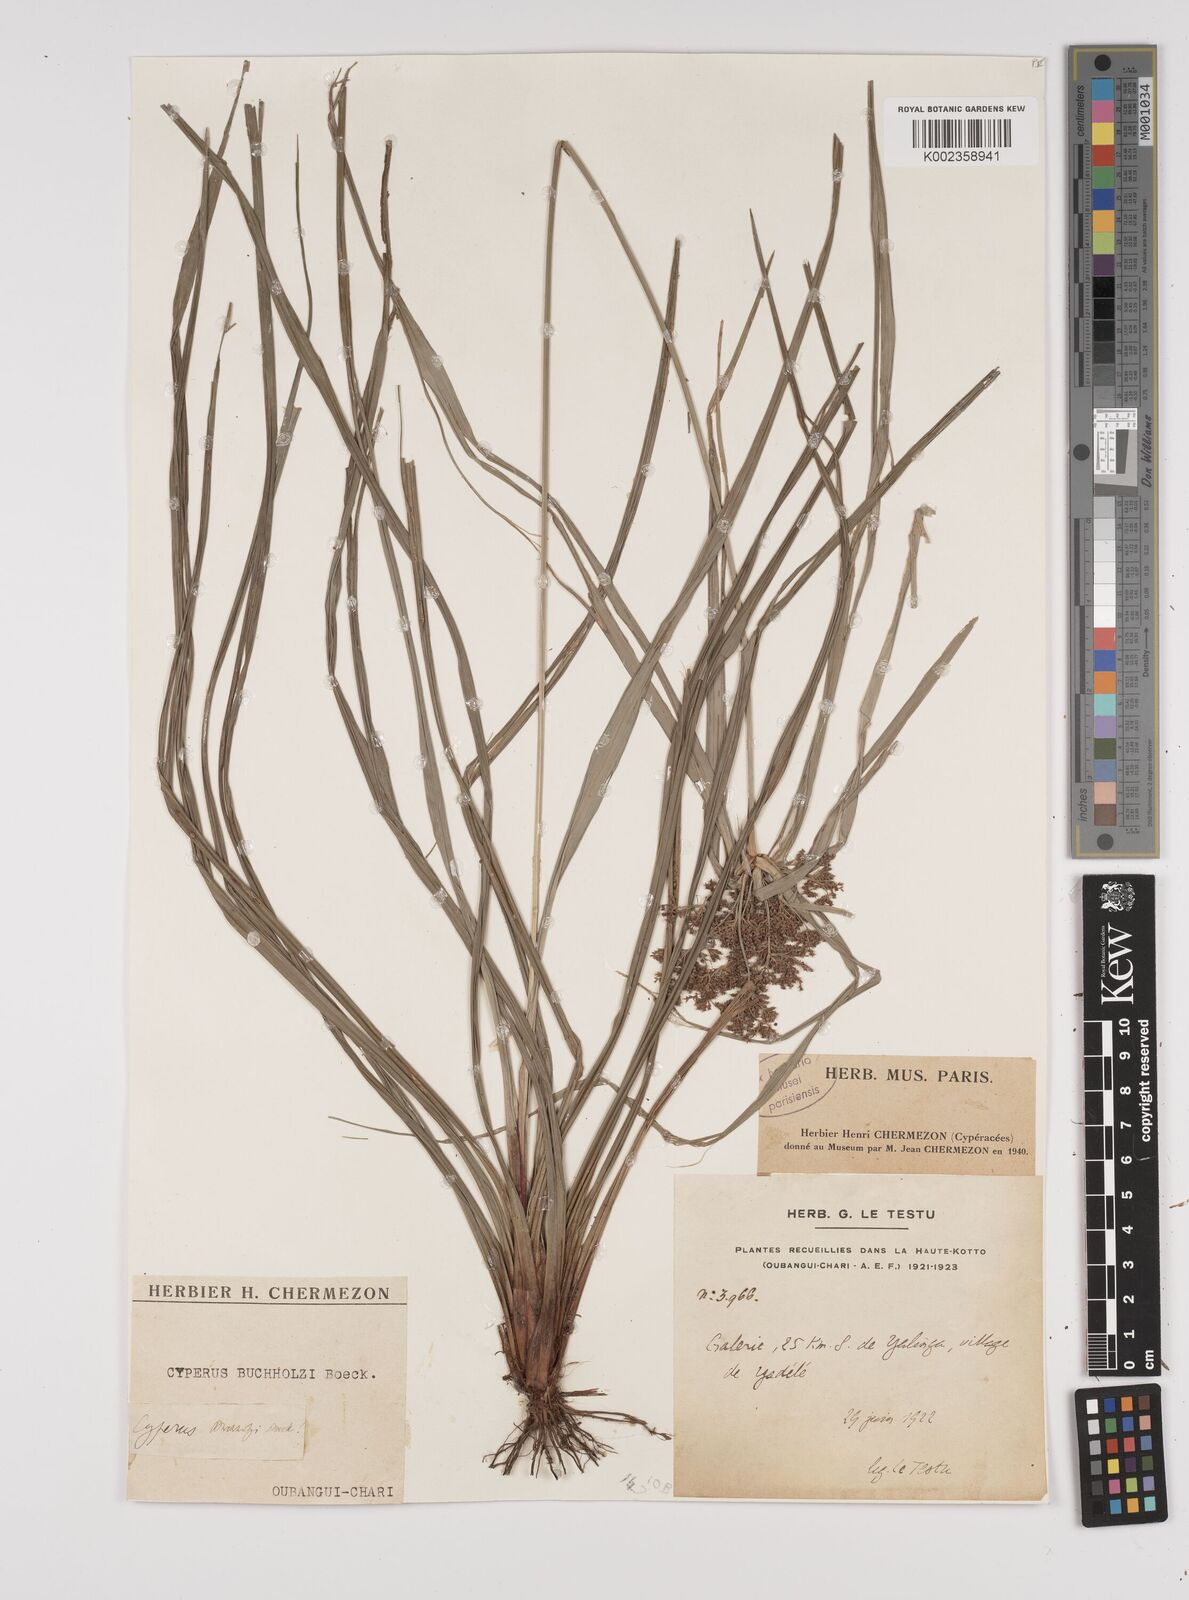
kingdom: Plantae
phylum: Tracheophyta
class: Liliopsida
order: Poales
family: Cyperaceae
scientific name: Cyperaceae
